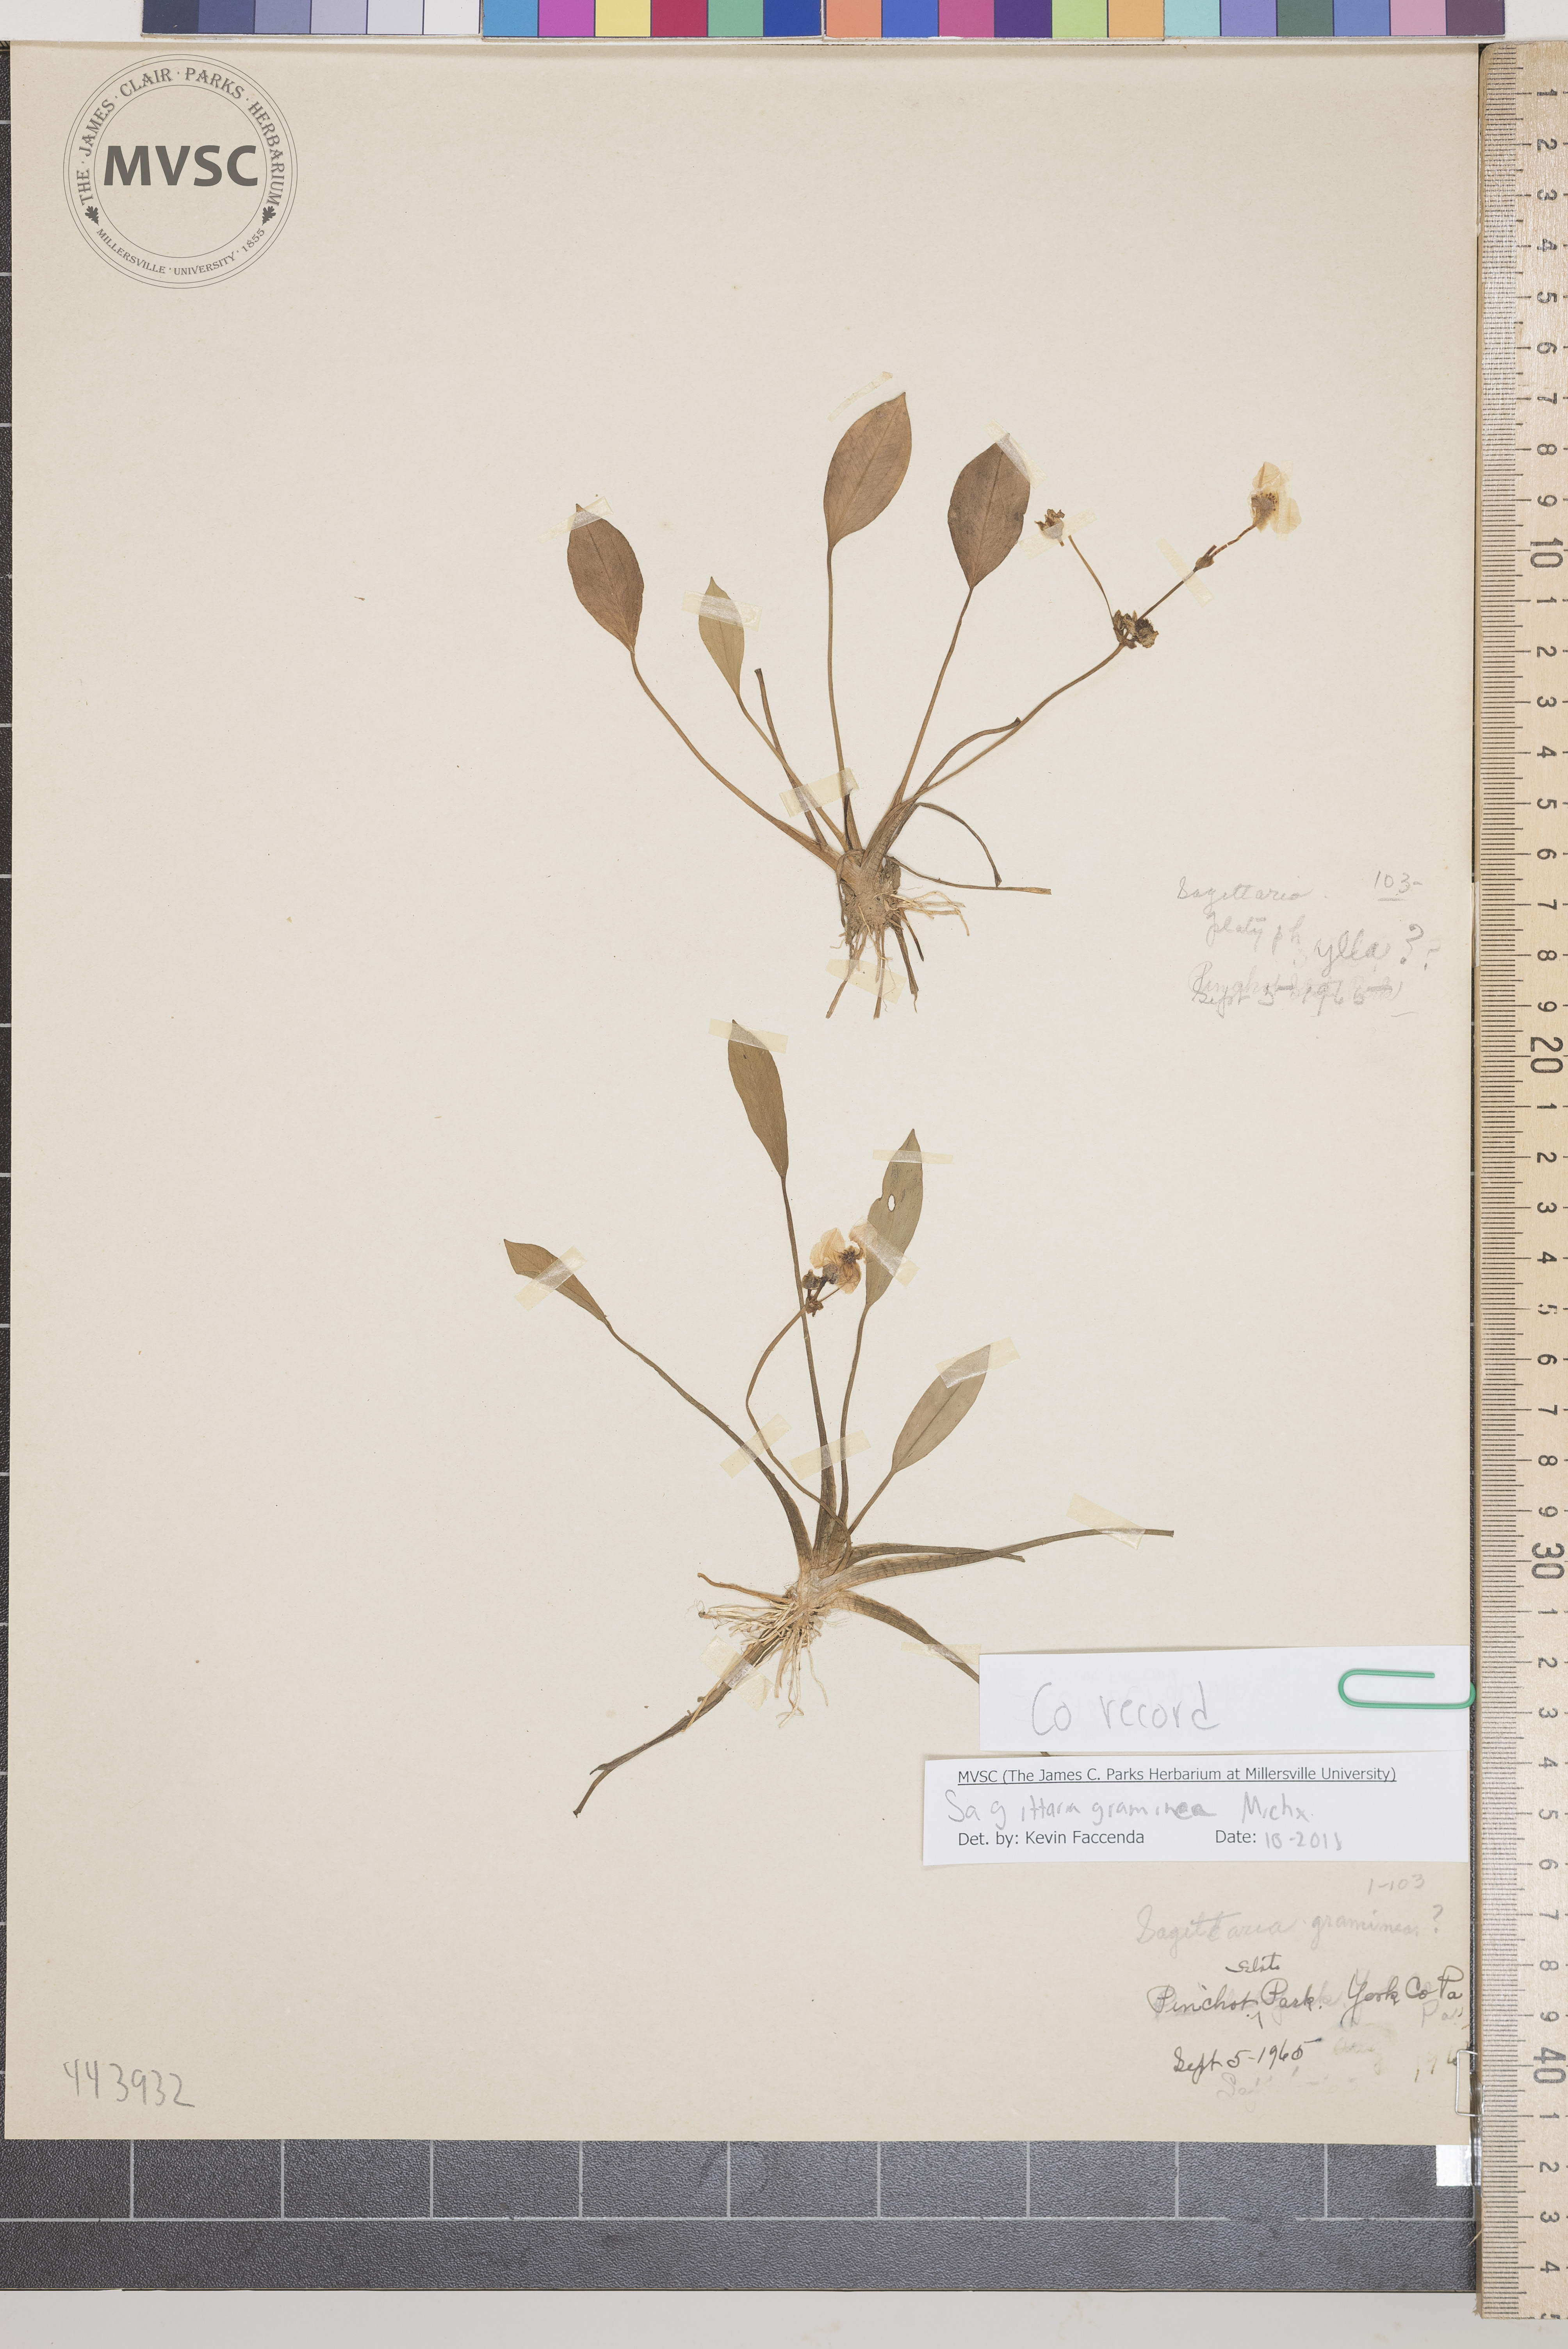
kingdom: Plantae
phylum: Tracheophyta
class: Liliopsida
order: Alismatales
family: Alismataceae
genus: Sagittaria
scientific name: Sagittaria rigida
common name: Canadian arrowhead
